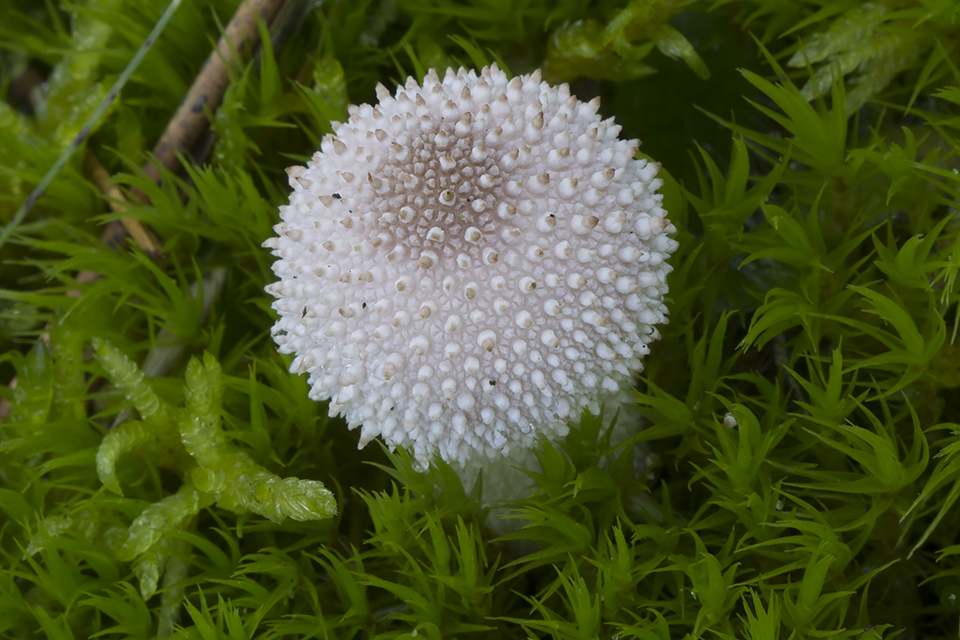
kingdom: Fungi
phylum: Basidiomycota
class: Agaricomycetes
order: Agaricales
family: Lycoperdaceae
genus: Lycoperdon
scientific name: Lycoperdon perlatum
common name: krystal-støvbold
